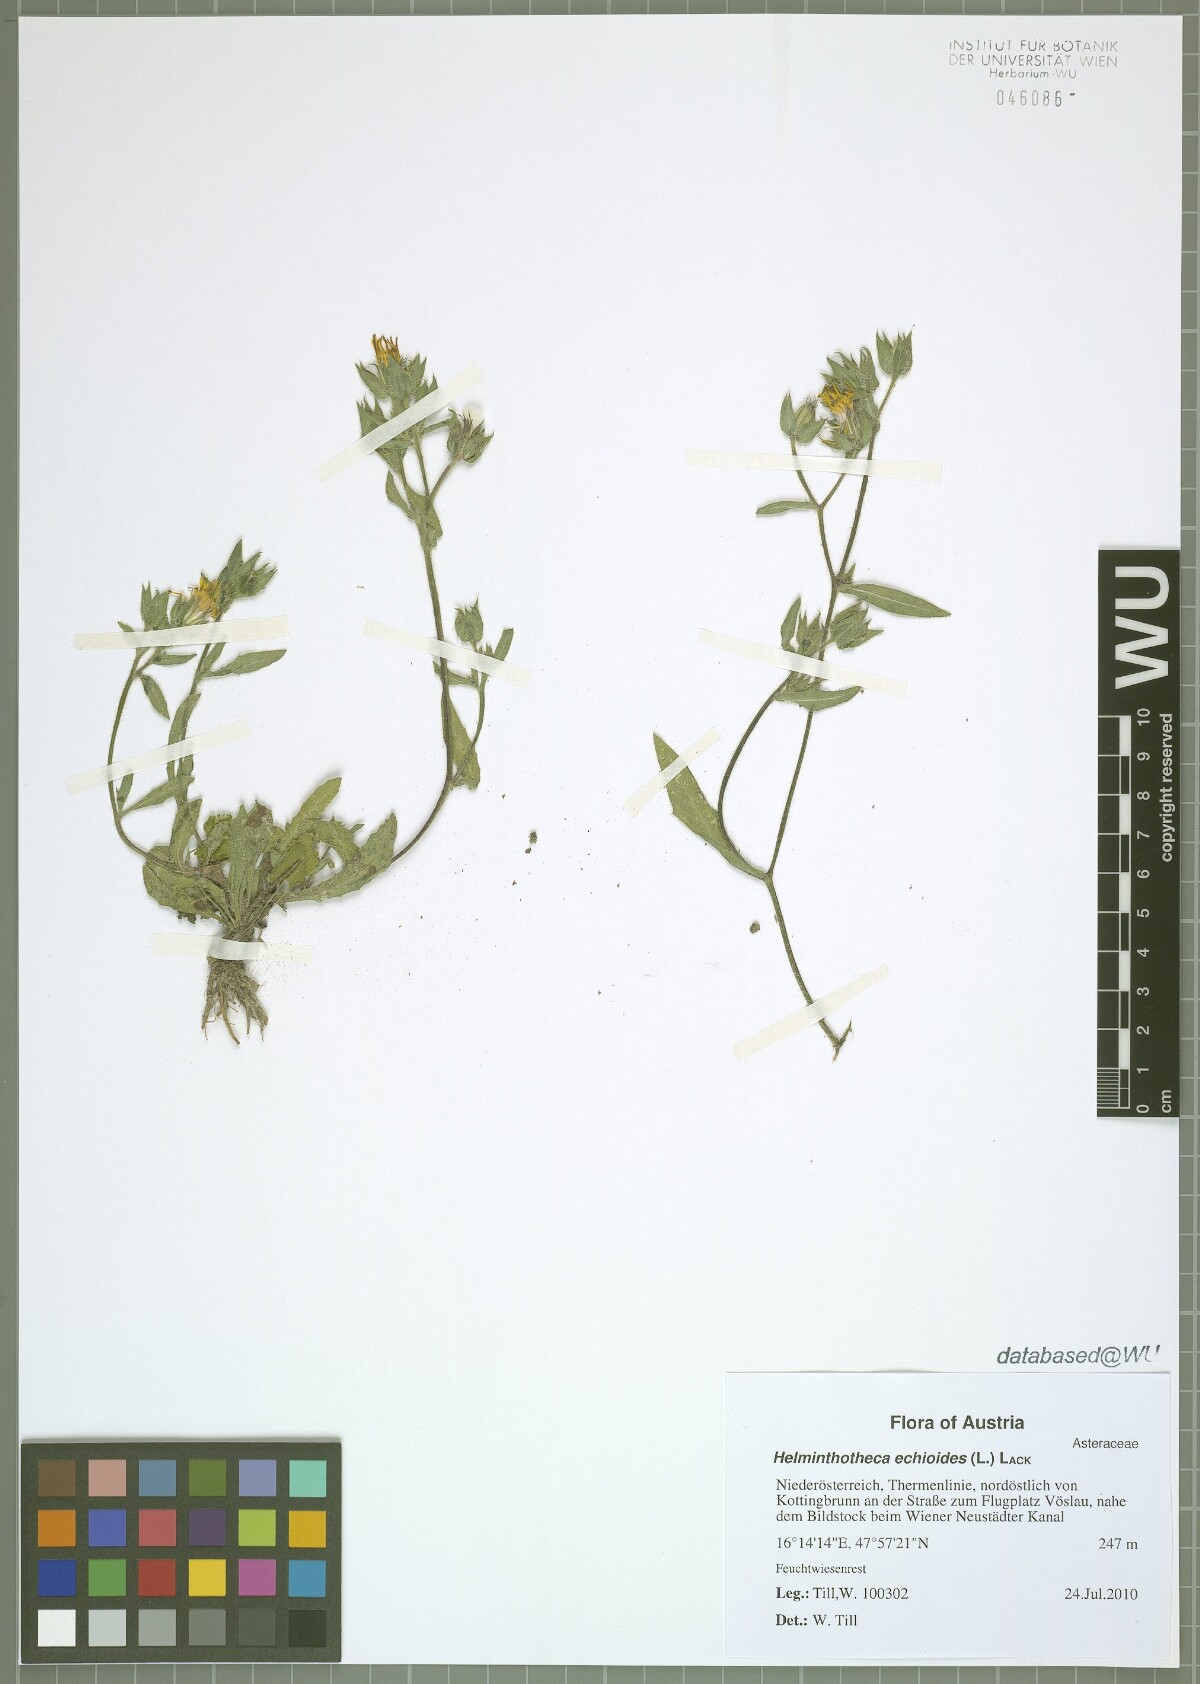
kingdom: Plantae
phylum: Tracheophyta
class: Magnoliopsida
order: Asterales
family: Asteraceae
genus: Helminthotheca
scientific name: Helminthotheca echioides
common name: Ox-tongue
